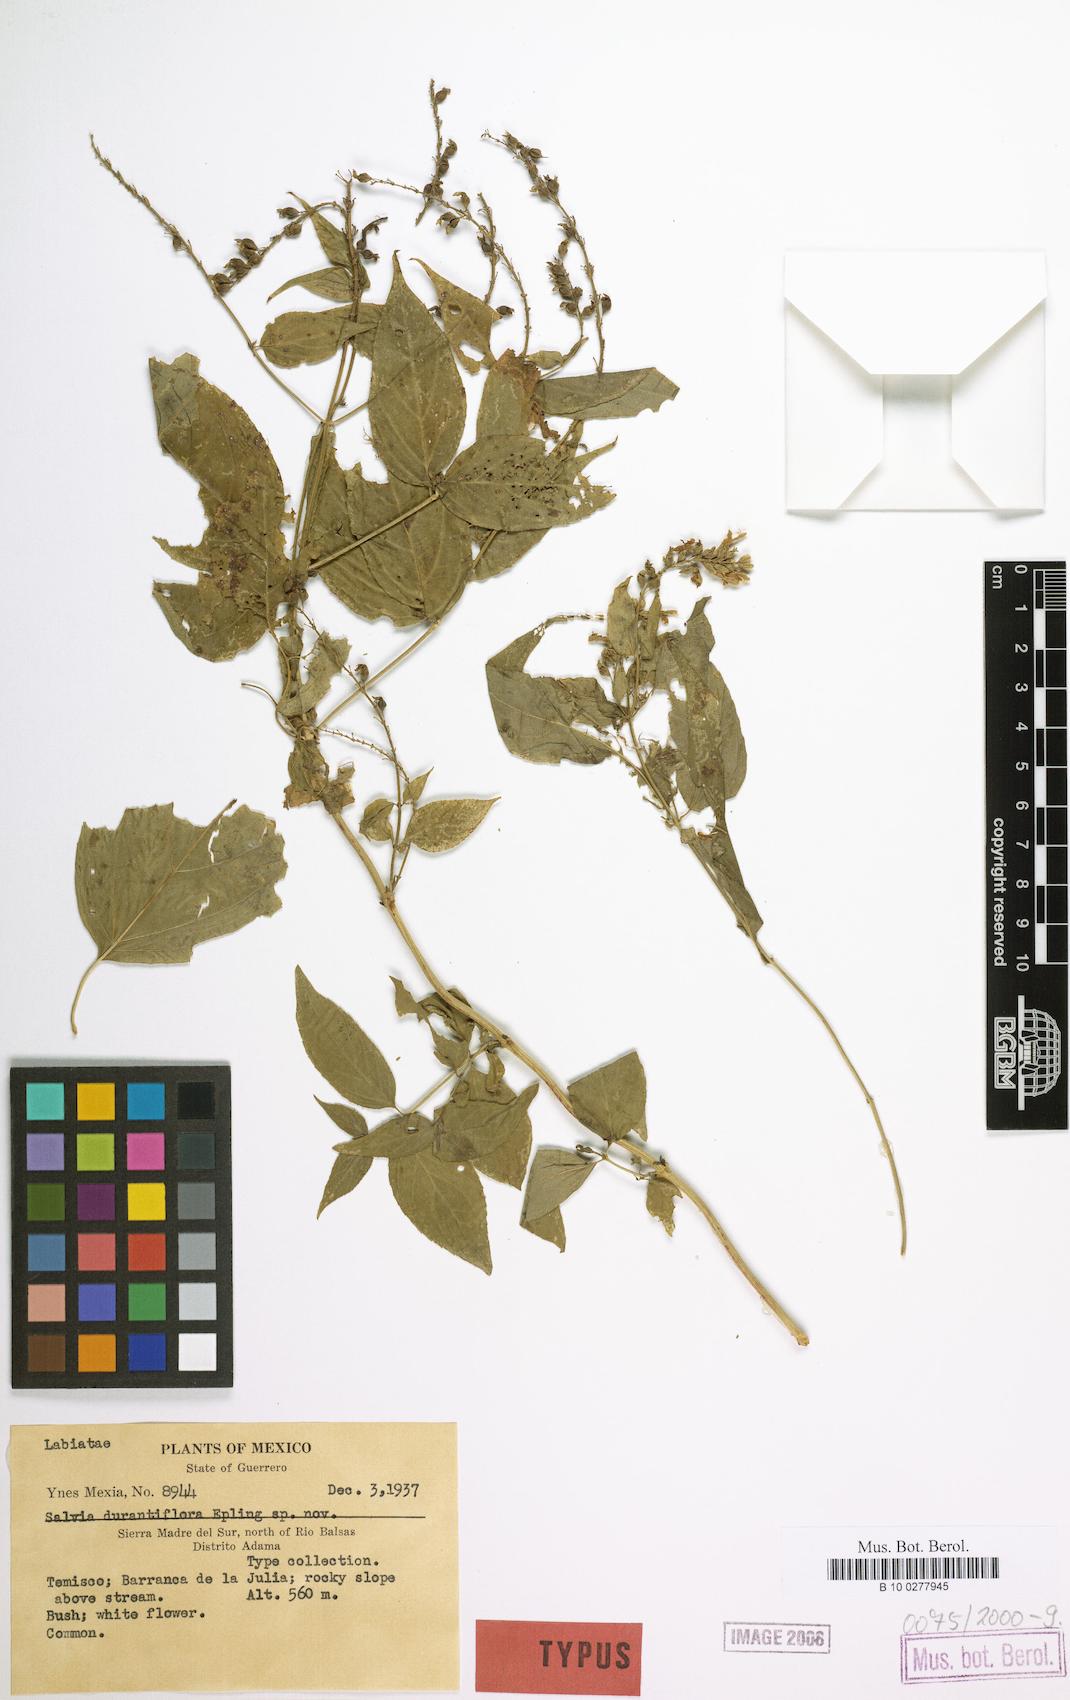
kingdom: Plantae
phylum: Tracheophyta
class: Magnoliopsida
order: Lamiales
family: Lamiaceae
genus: Salvia
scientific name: Salvia durantiflora
